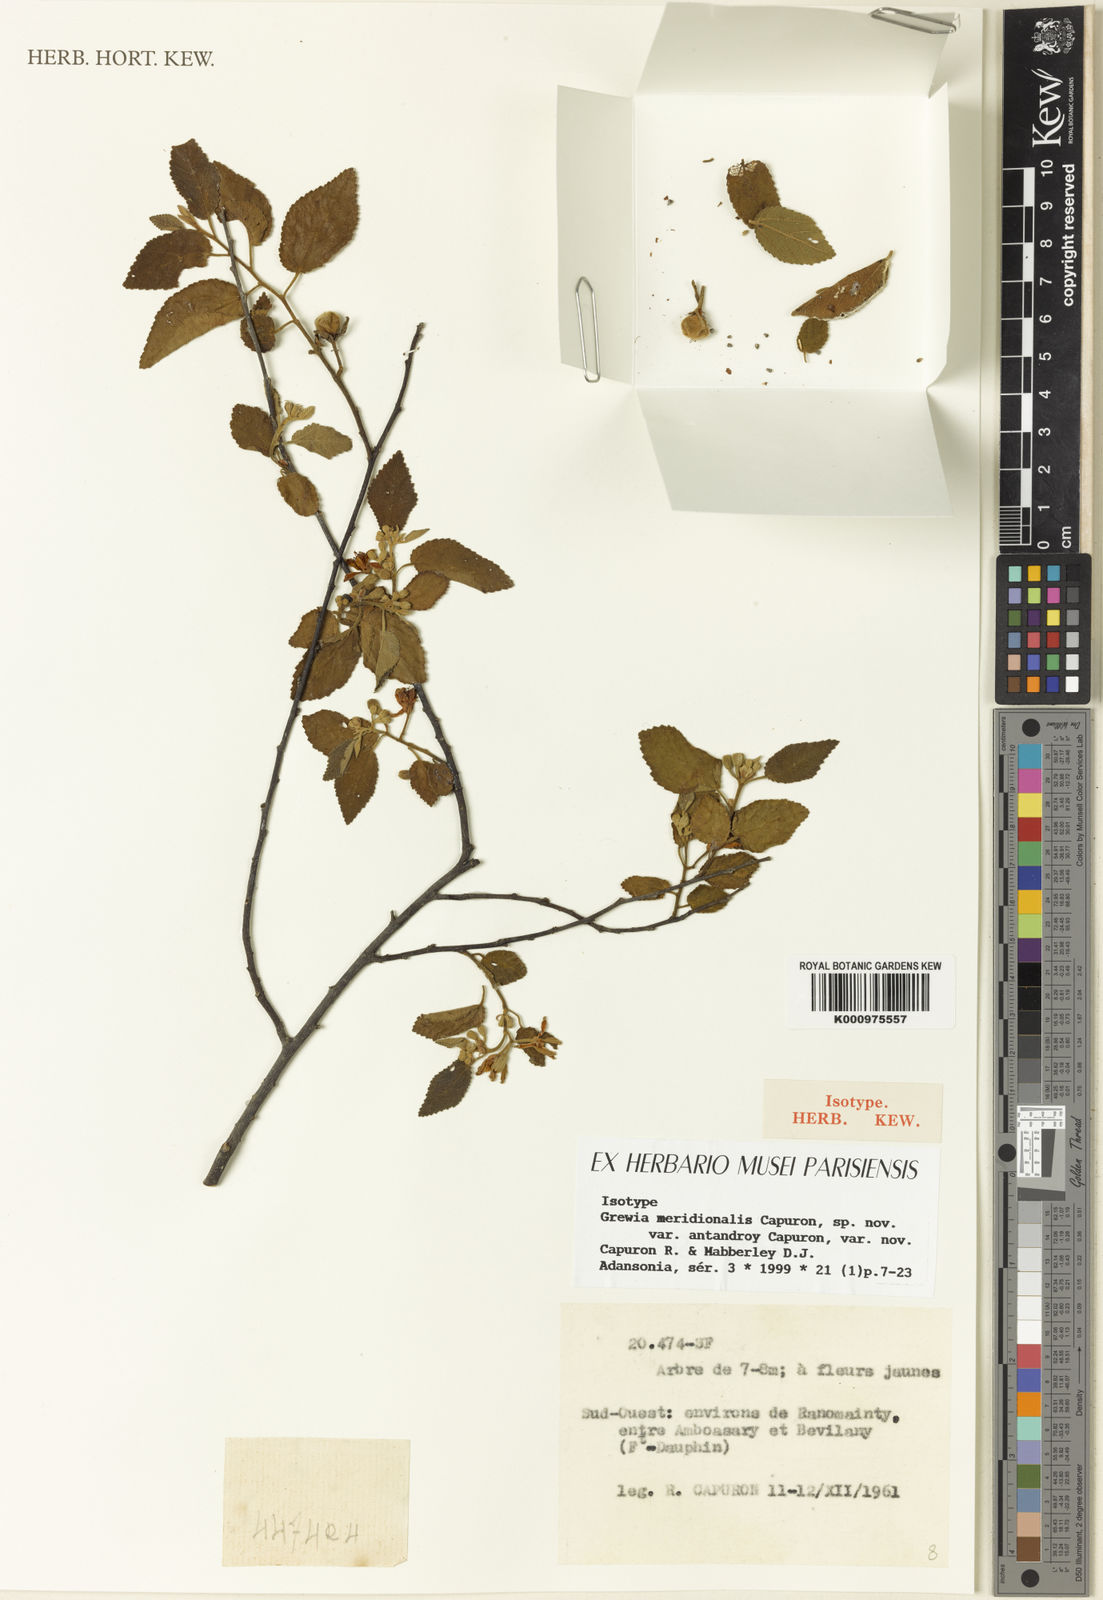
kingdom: Plantae
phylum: Tracheophyta
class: Magnoliopsida
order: Malvales
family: Malvaceae
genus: Grewia
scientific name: Grewia meridionalis
